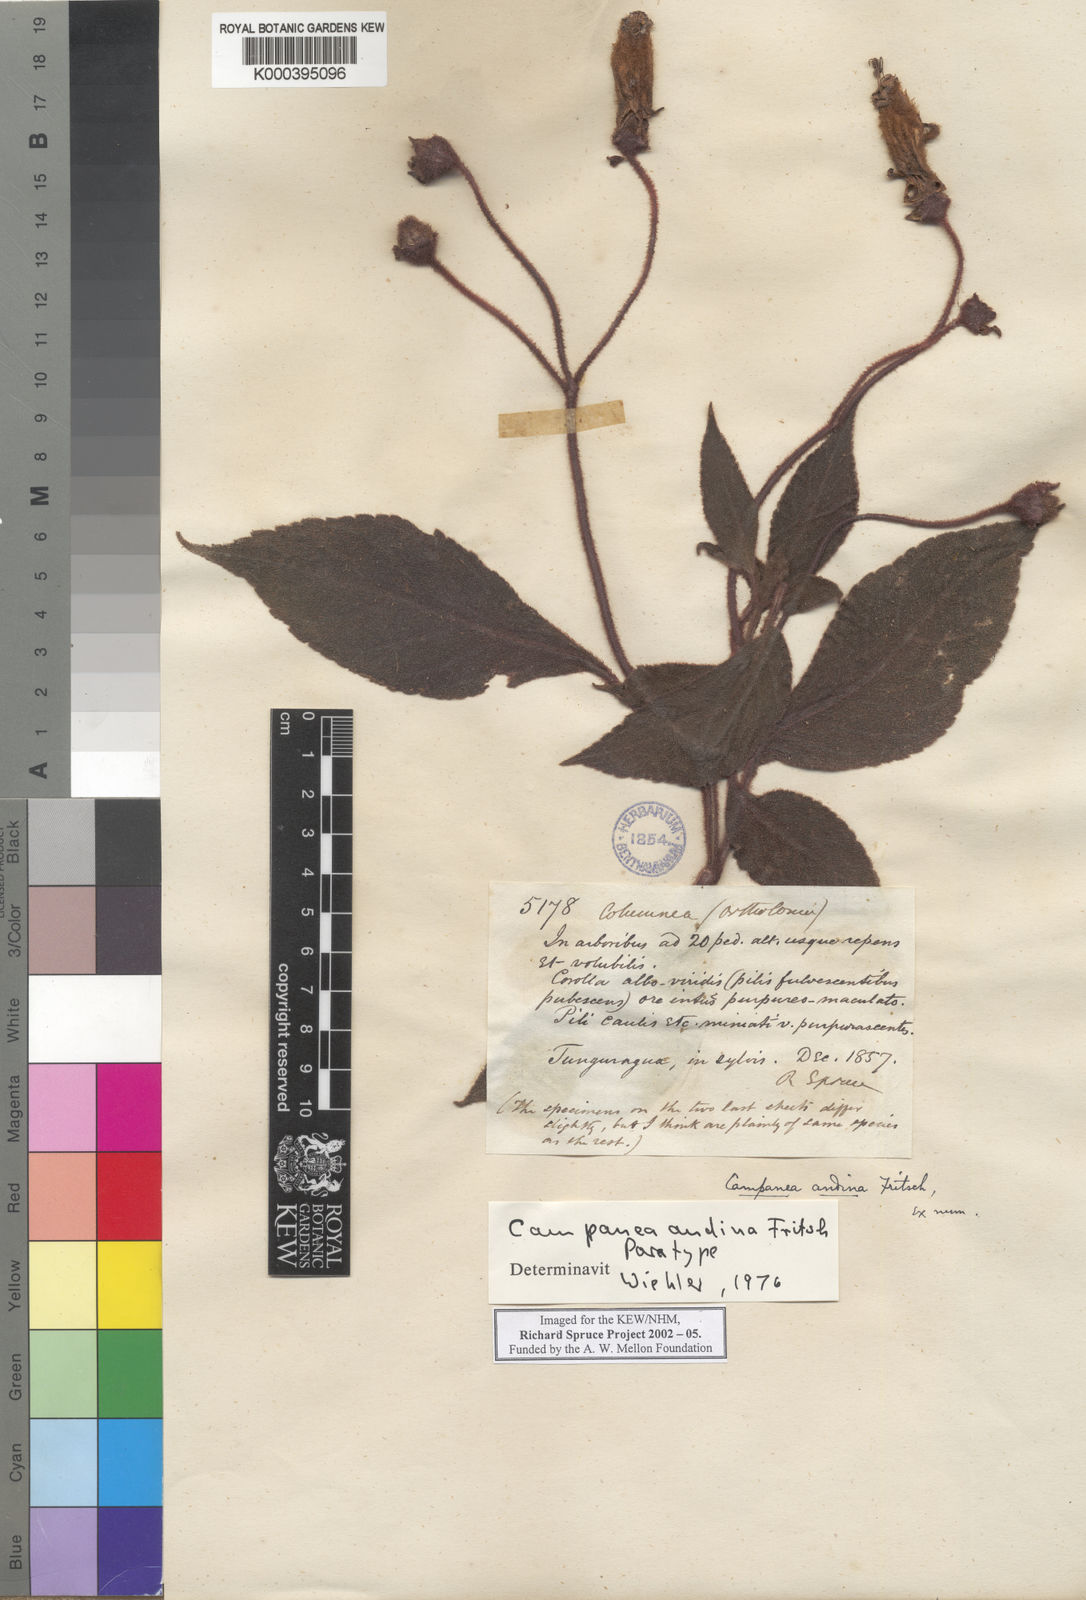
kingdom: Plantae
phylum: Tracheophyta
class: Magnoliopsida
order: Lamiales
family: Gesneriaceae
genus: Kohleria
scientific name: Kohleria
